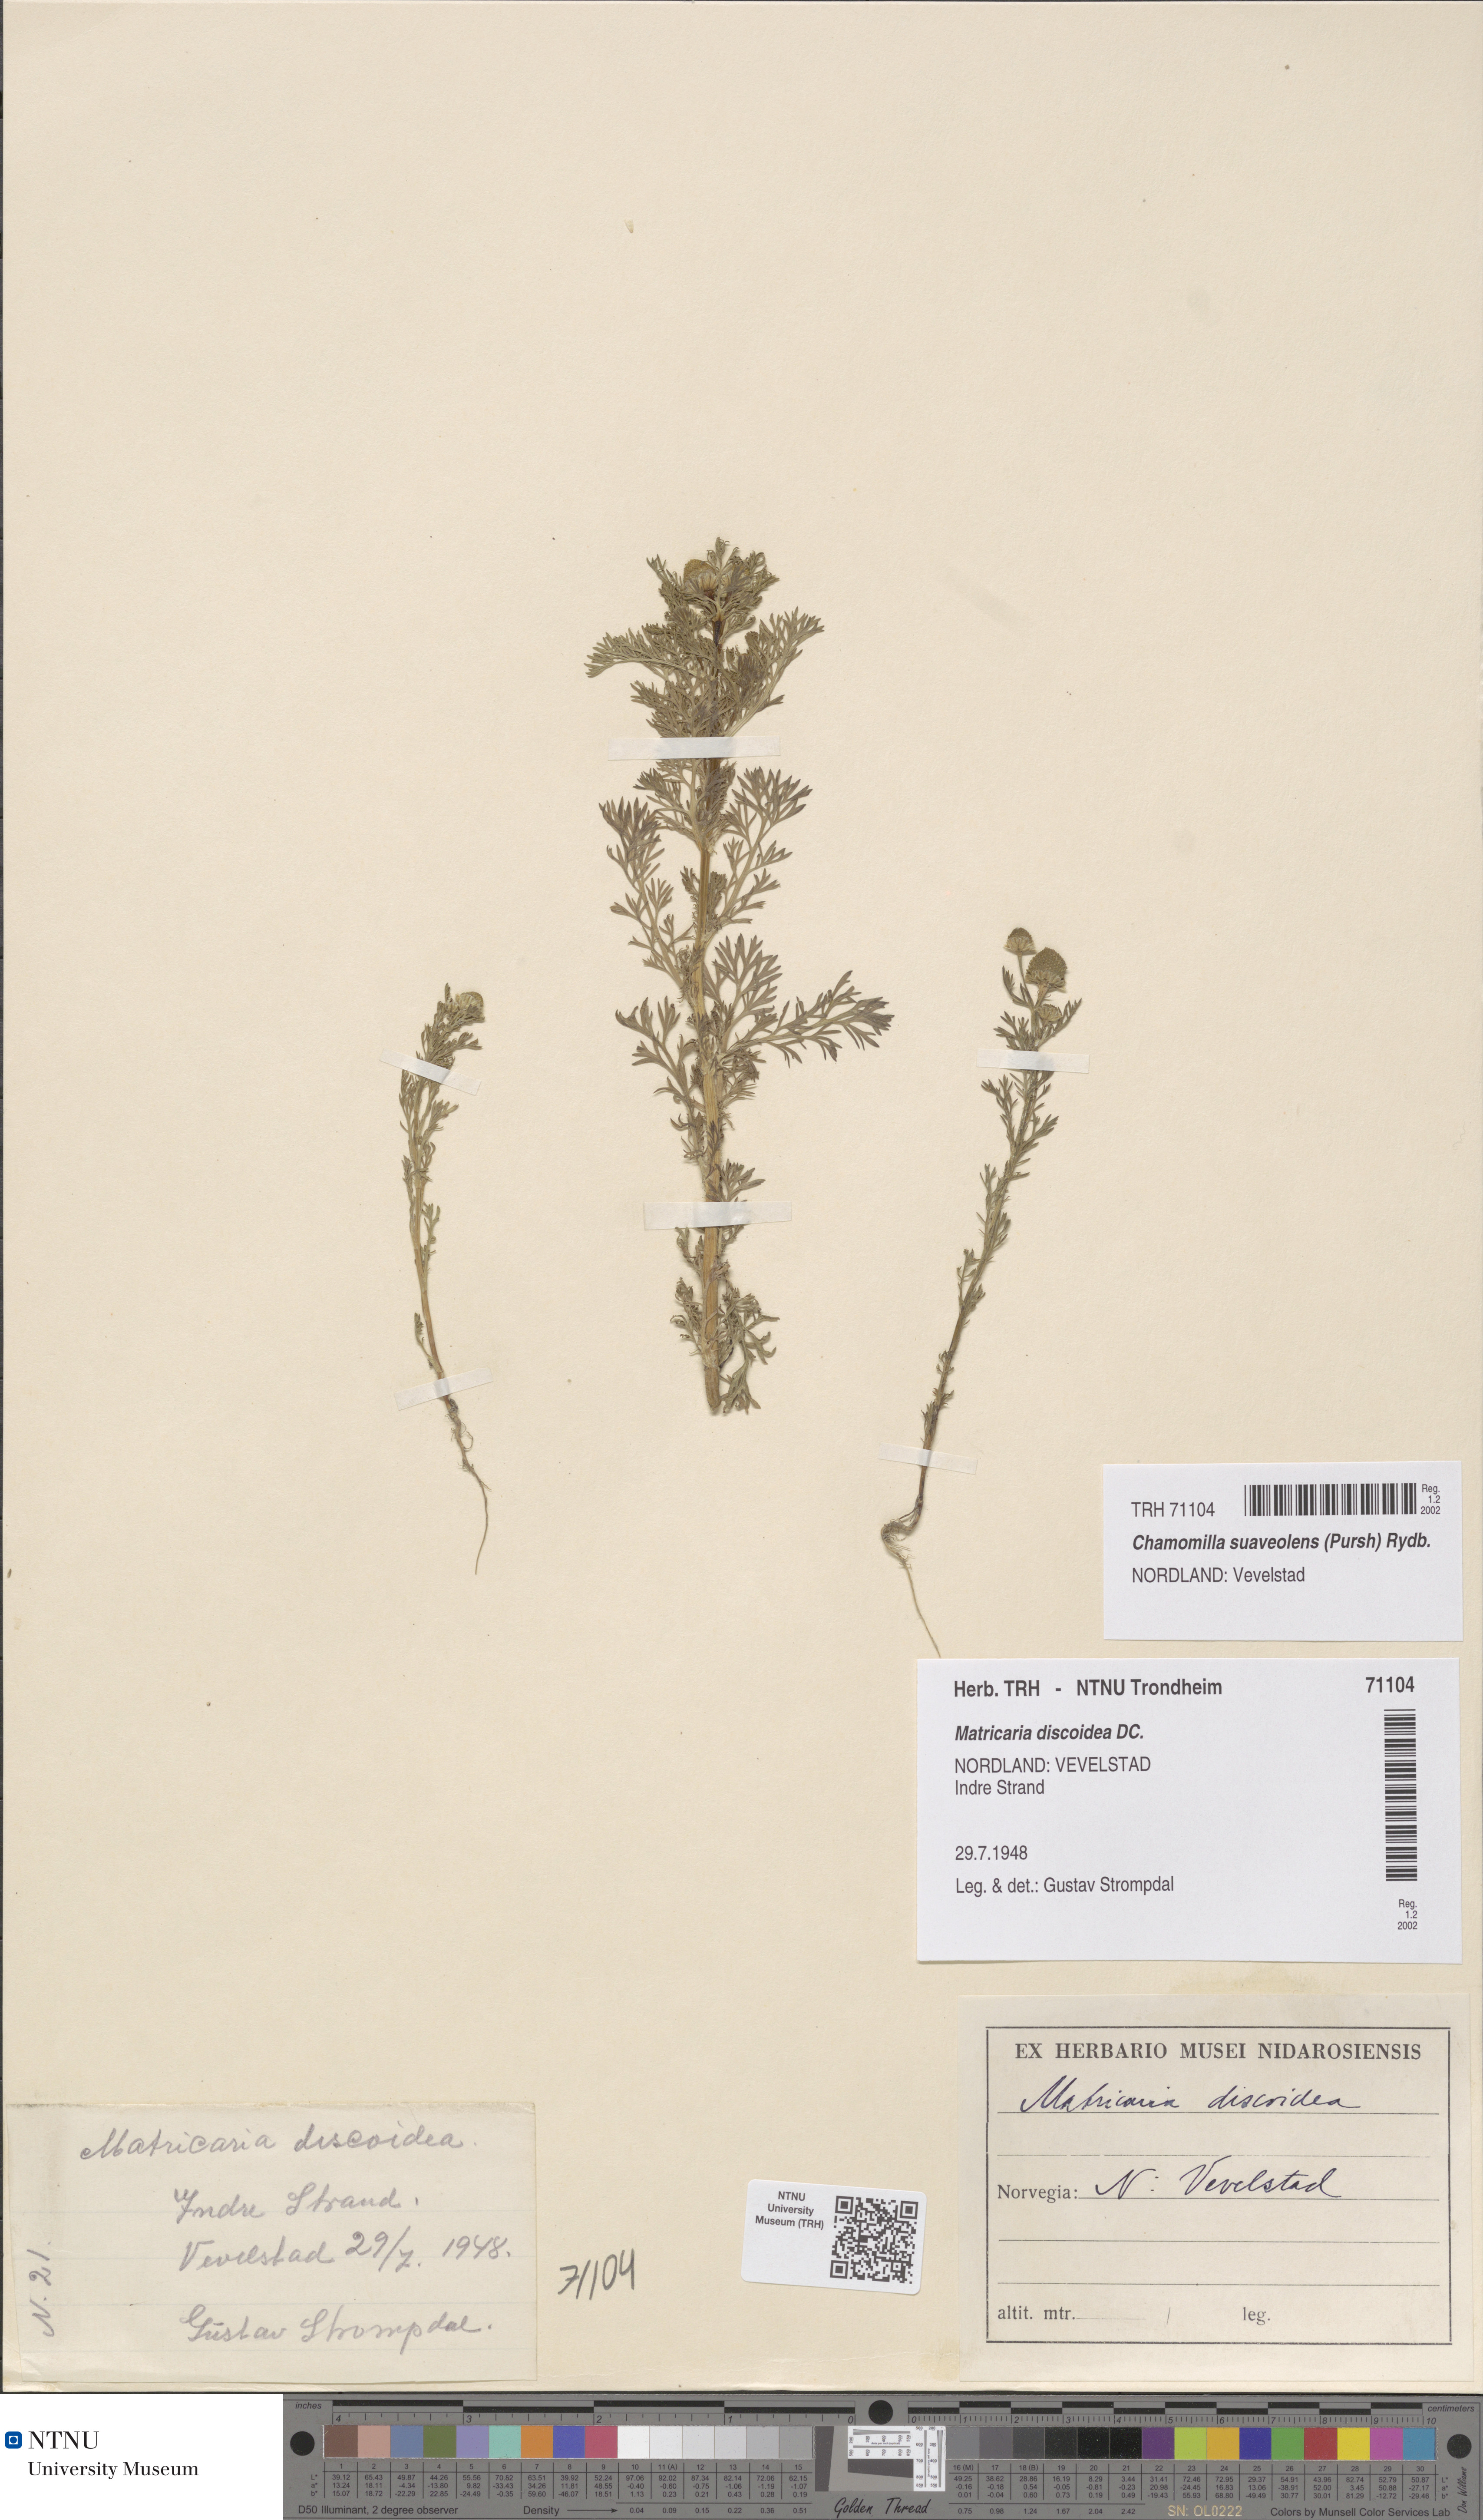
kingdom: Plantae
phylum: Tracheophyta
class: Magnoliopsida
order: Asterales
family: Asteraceae
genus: Matricaria
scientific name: Matricaria discoidea
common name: Disc mayweed
